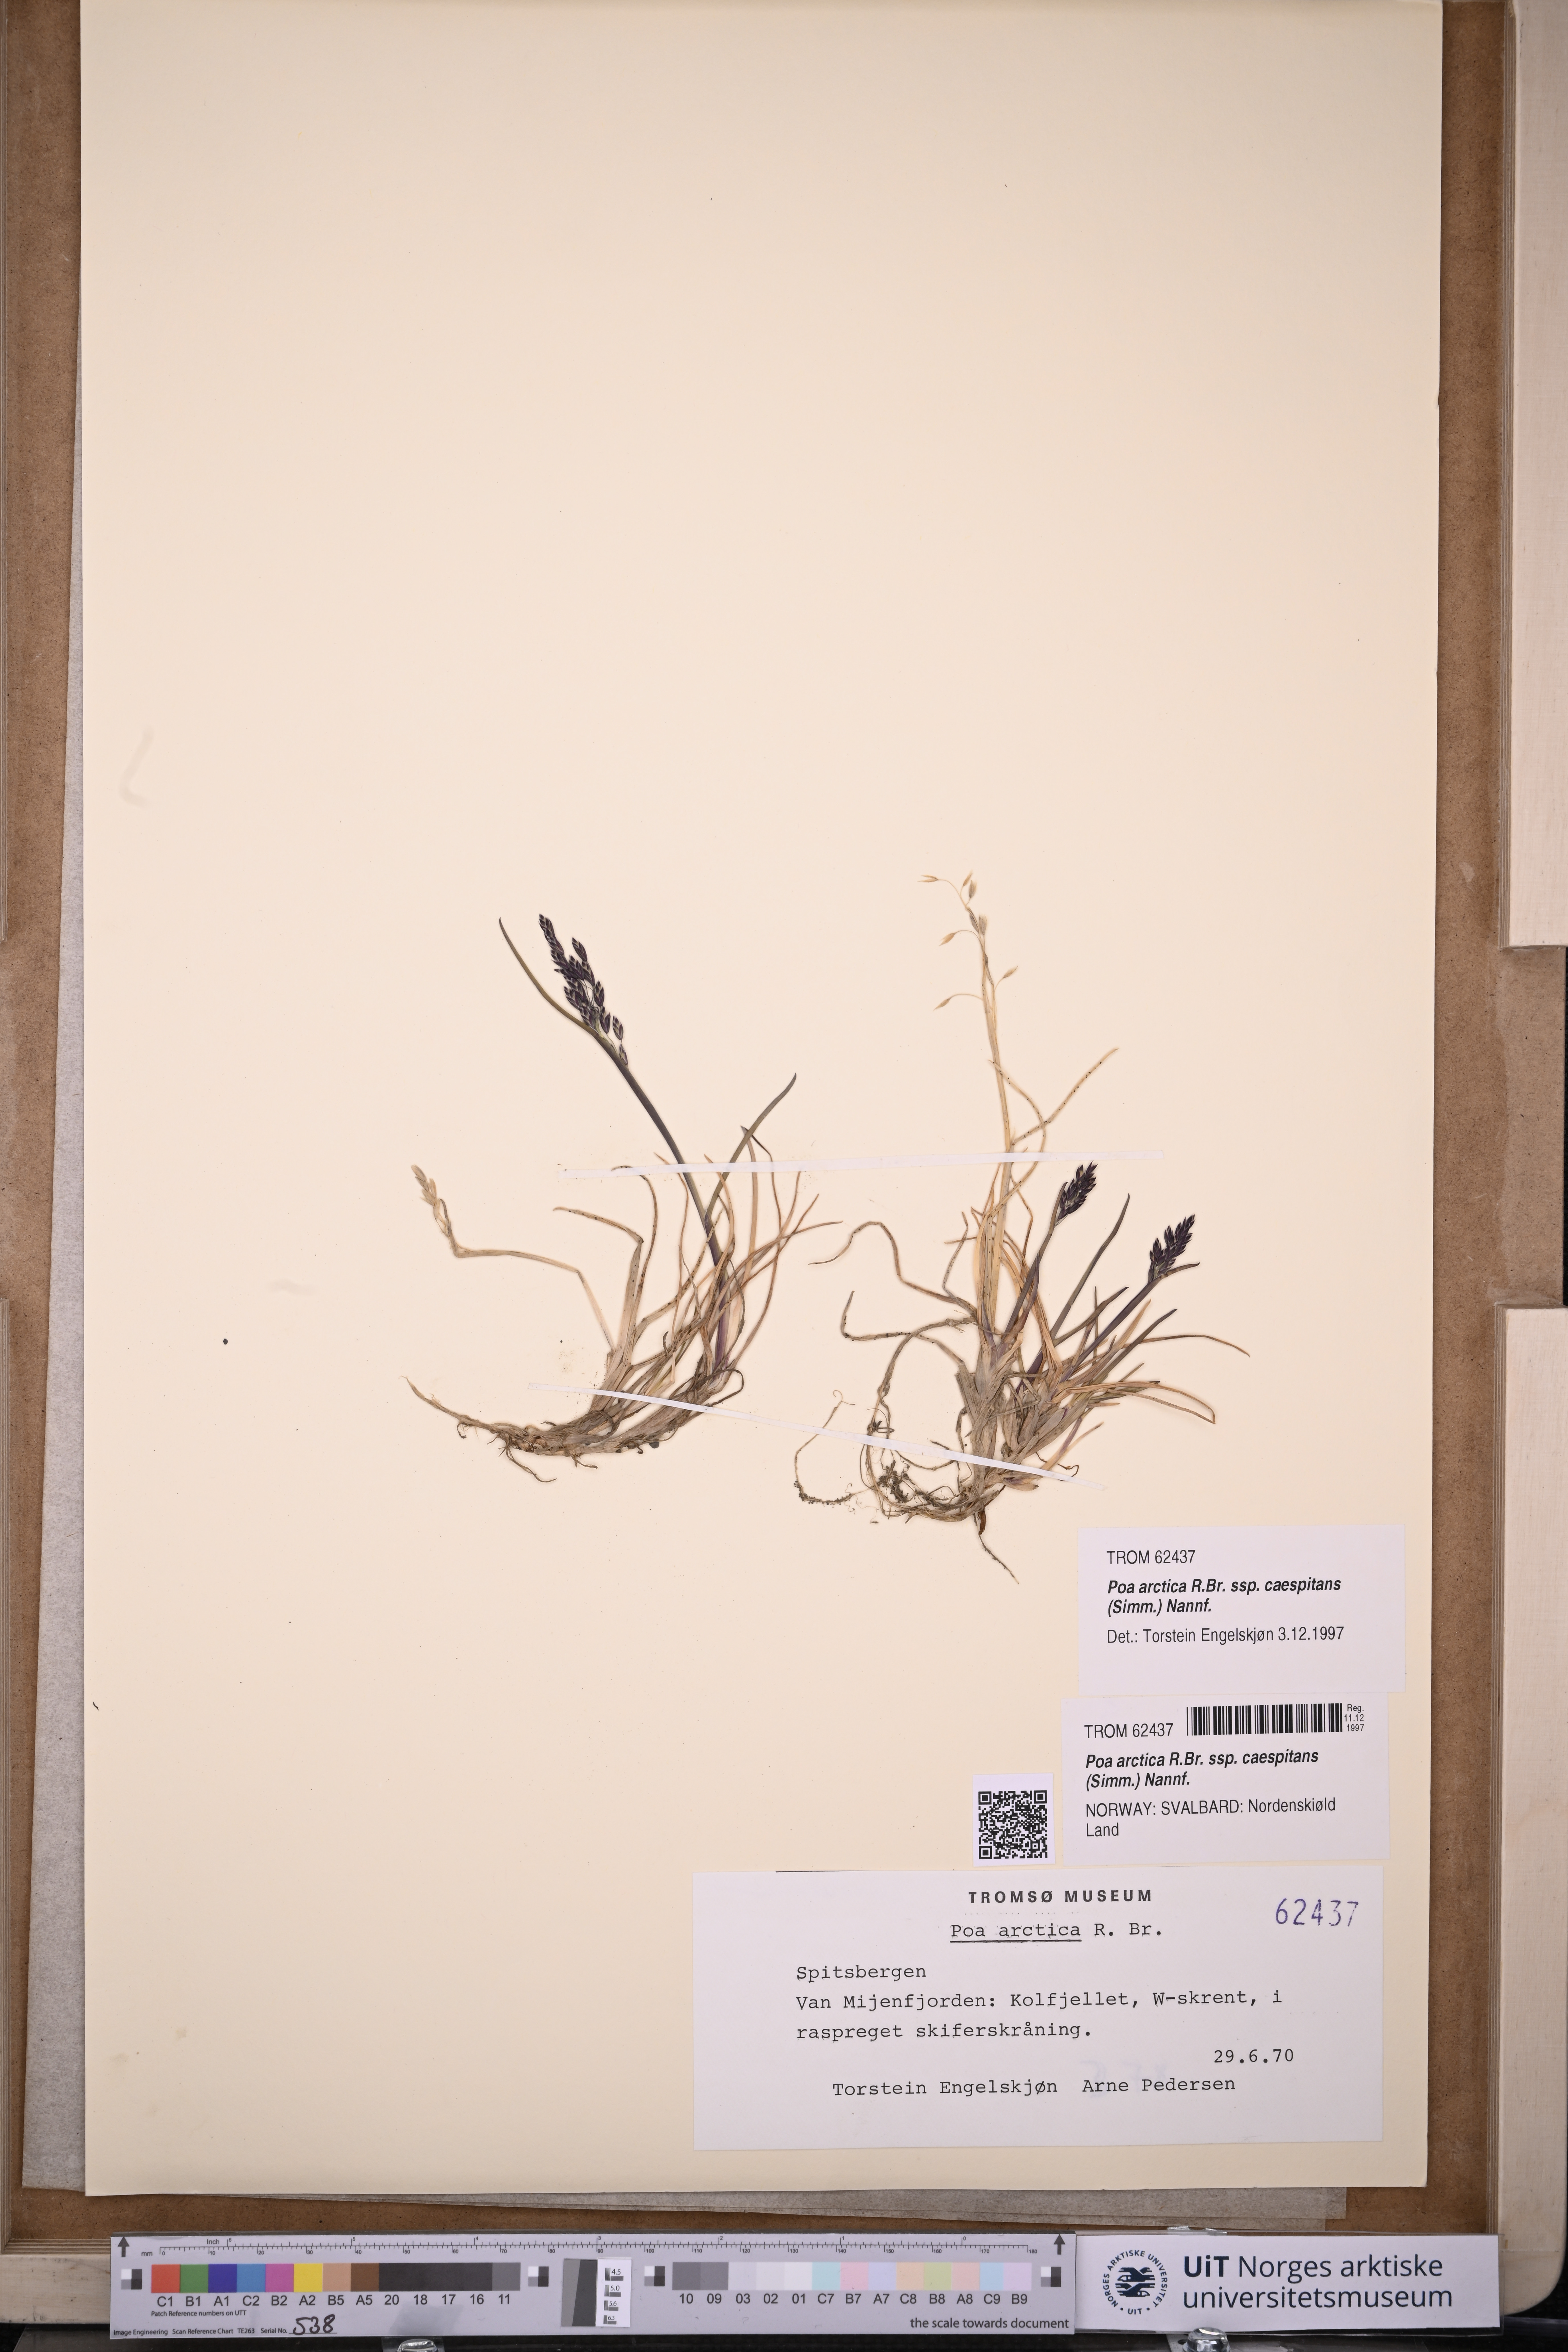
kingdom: Plantae
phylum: Tracheophyta
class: Liliopsida
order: Poales
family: Poaceae
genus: Poa
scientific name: Poa tolmatchewii
